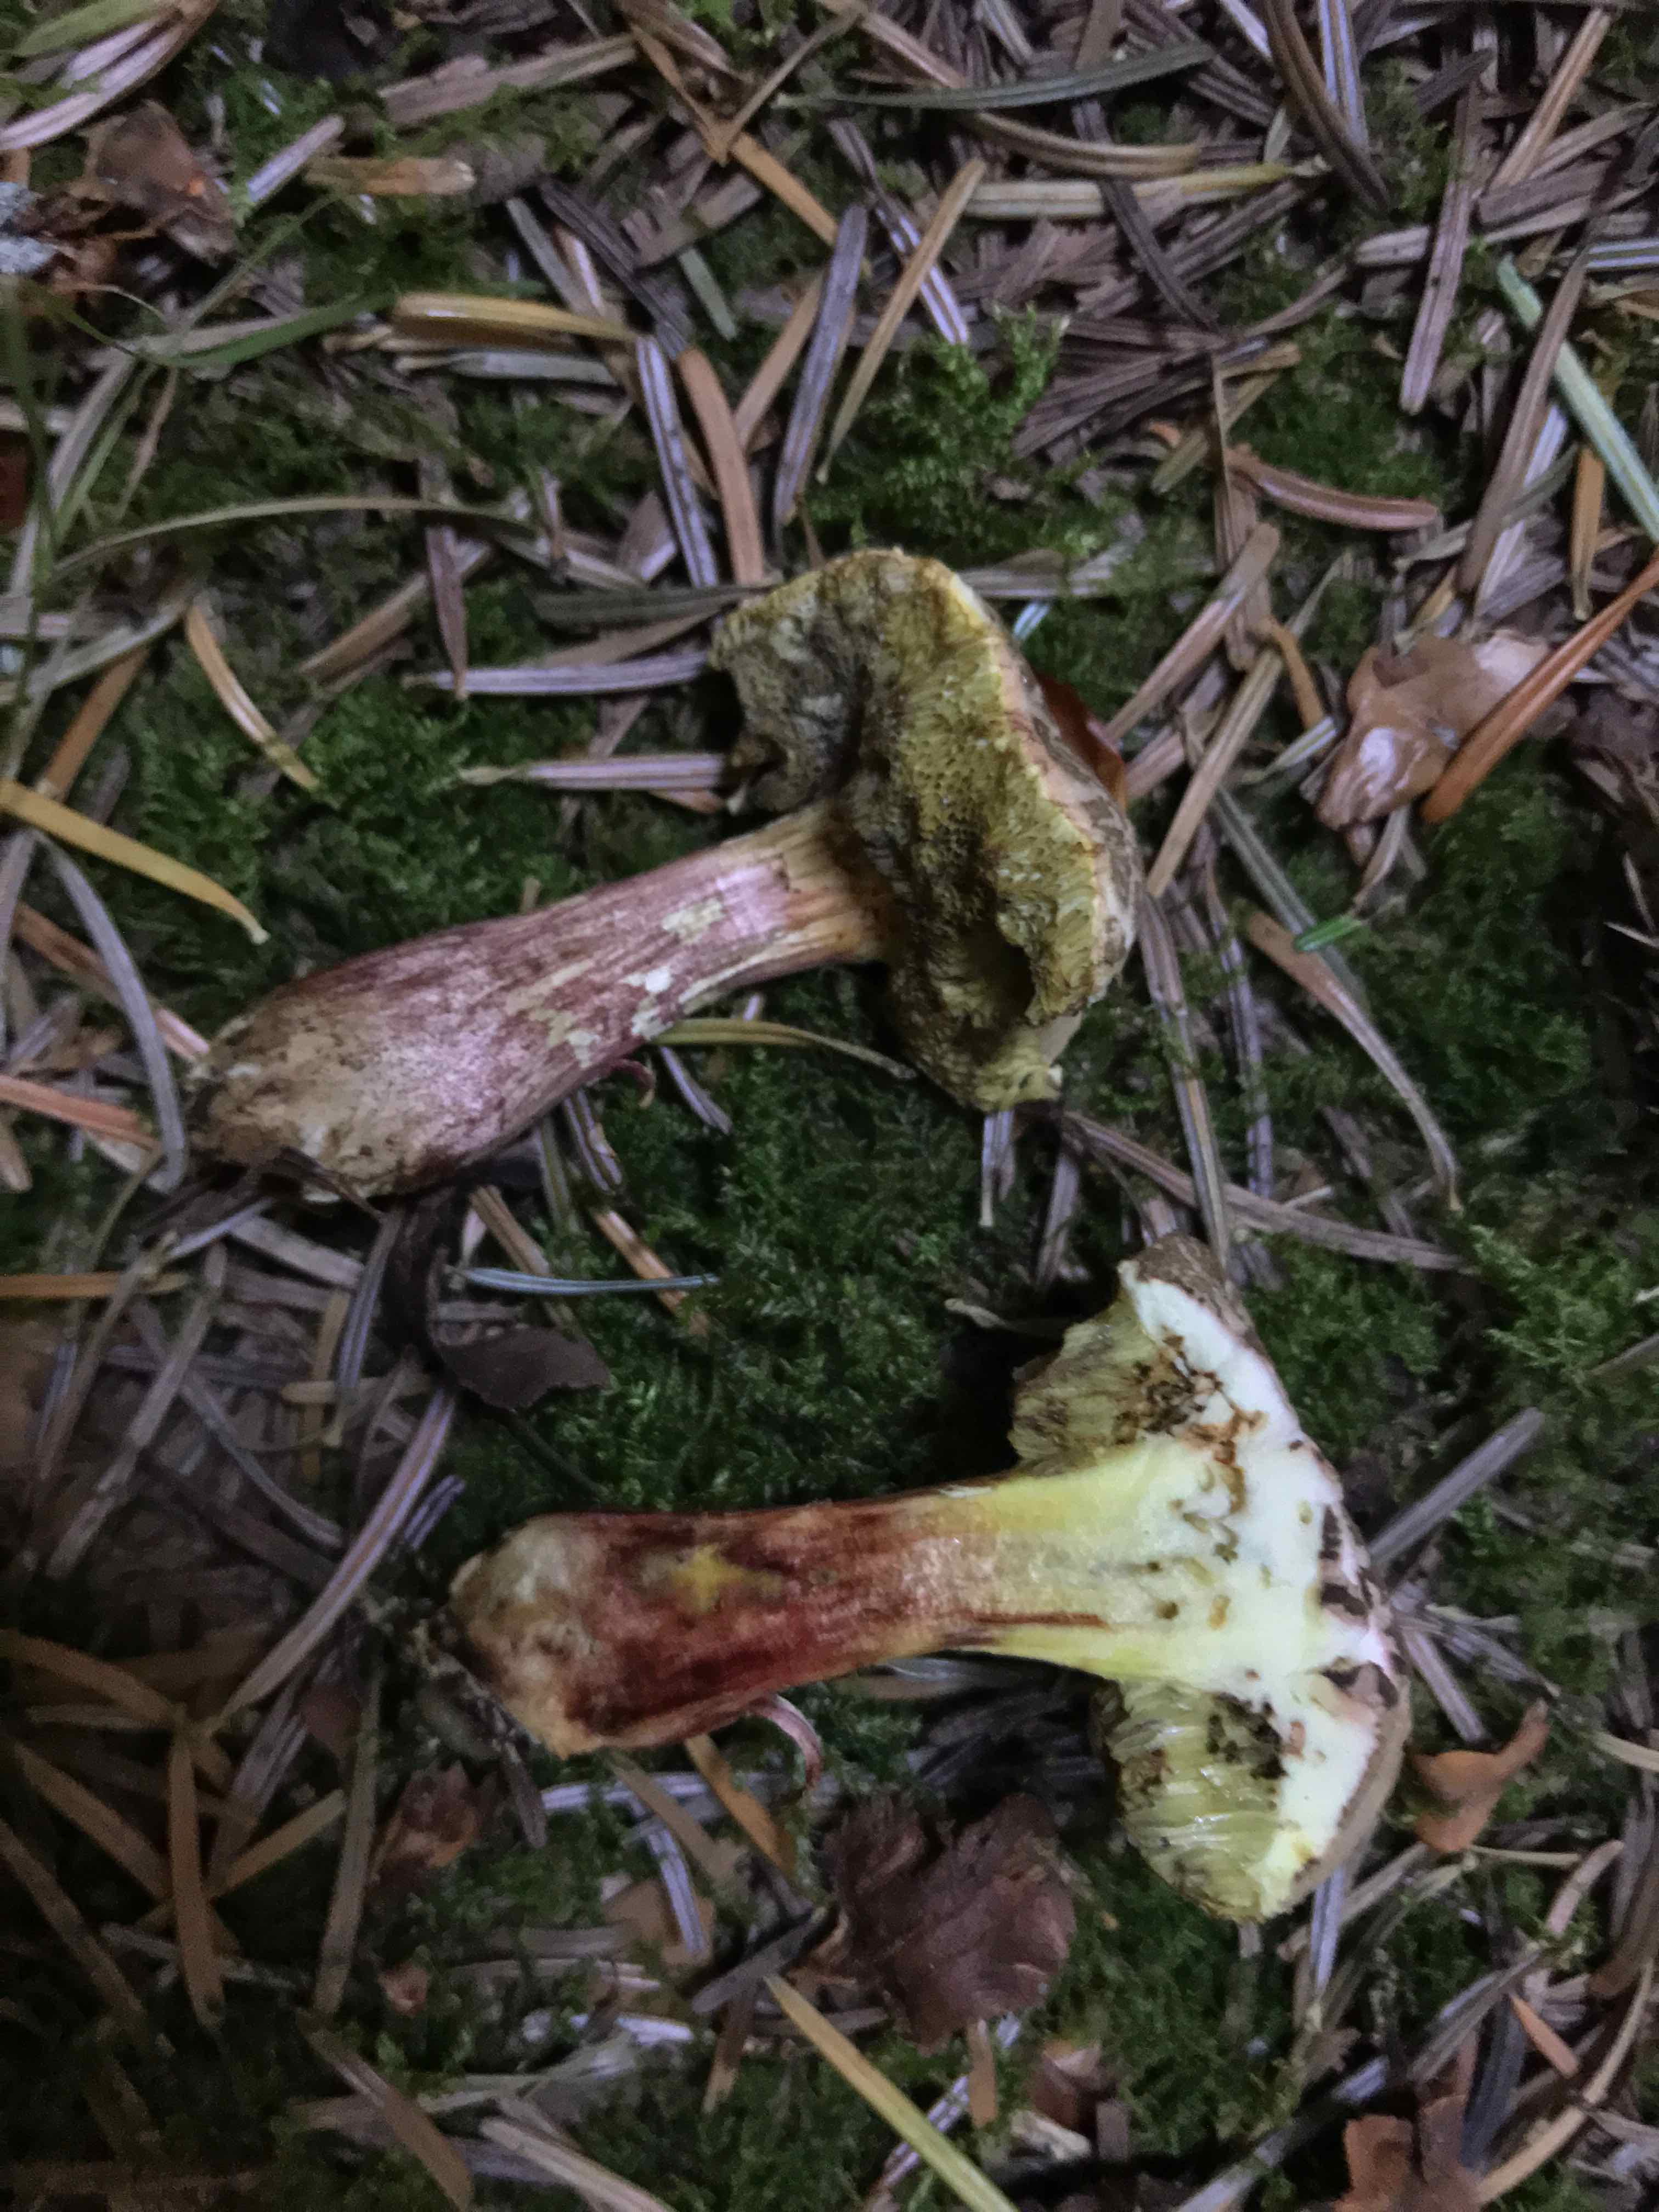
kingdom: Fungi
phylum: Basidiomycota
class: Agaricomycetes
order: Boletales
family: Boletaceae
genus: Xerocomellus
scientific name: Xerocomellus chrysenteron
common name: rødsprukken rørhat
